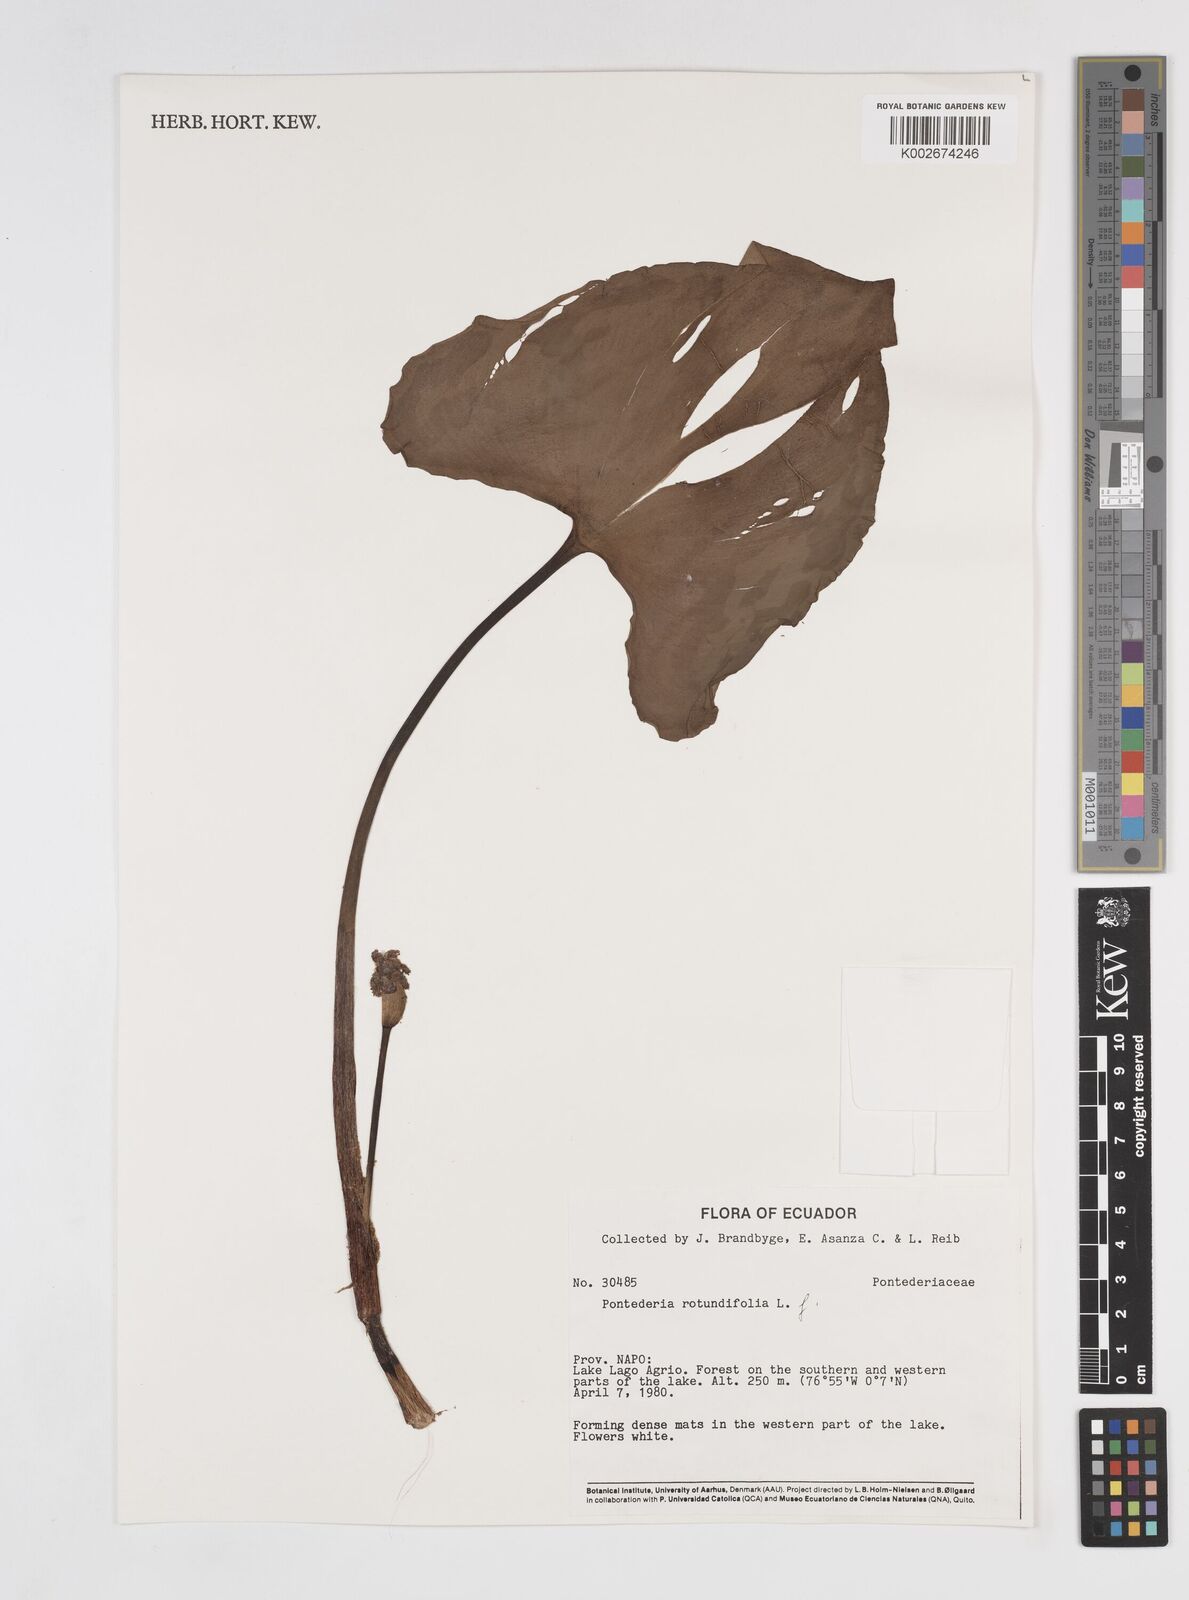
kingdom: Plantae
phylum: Tracheophyta
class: Liliopsida
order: Commelinales
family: Pontederiaceae
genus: Pontederia
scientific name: Pontederia rotundifolia
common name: Tropical pickerel-weed
